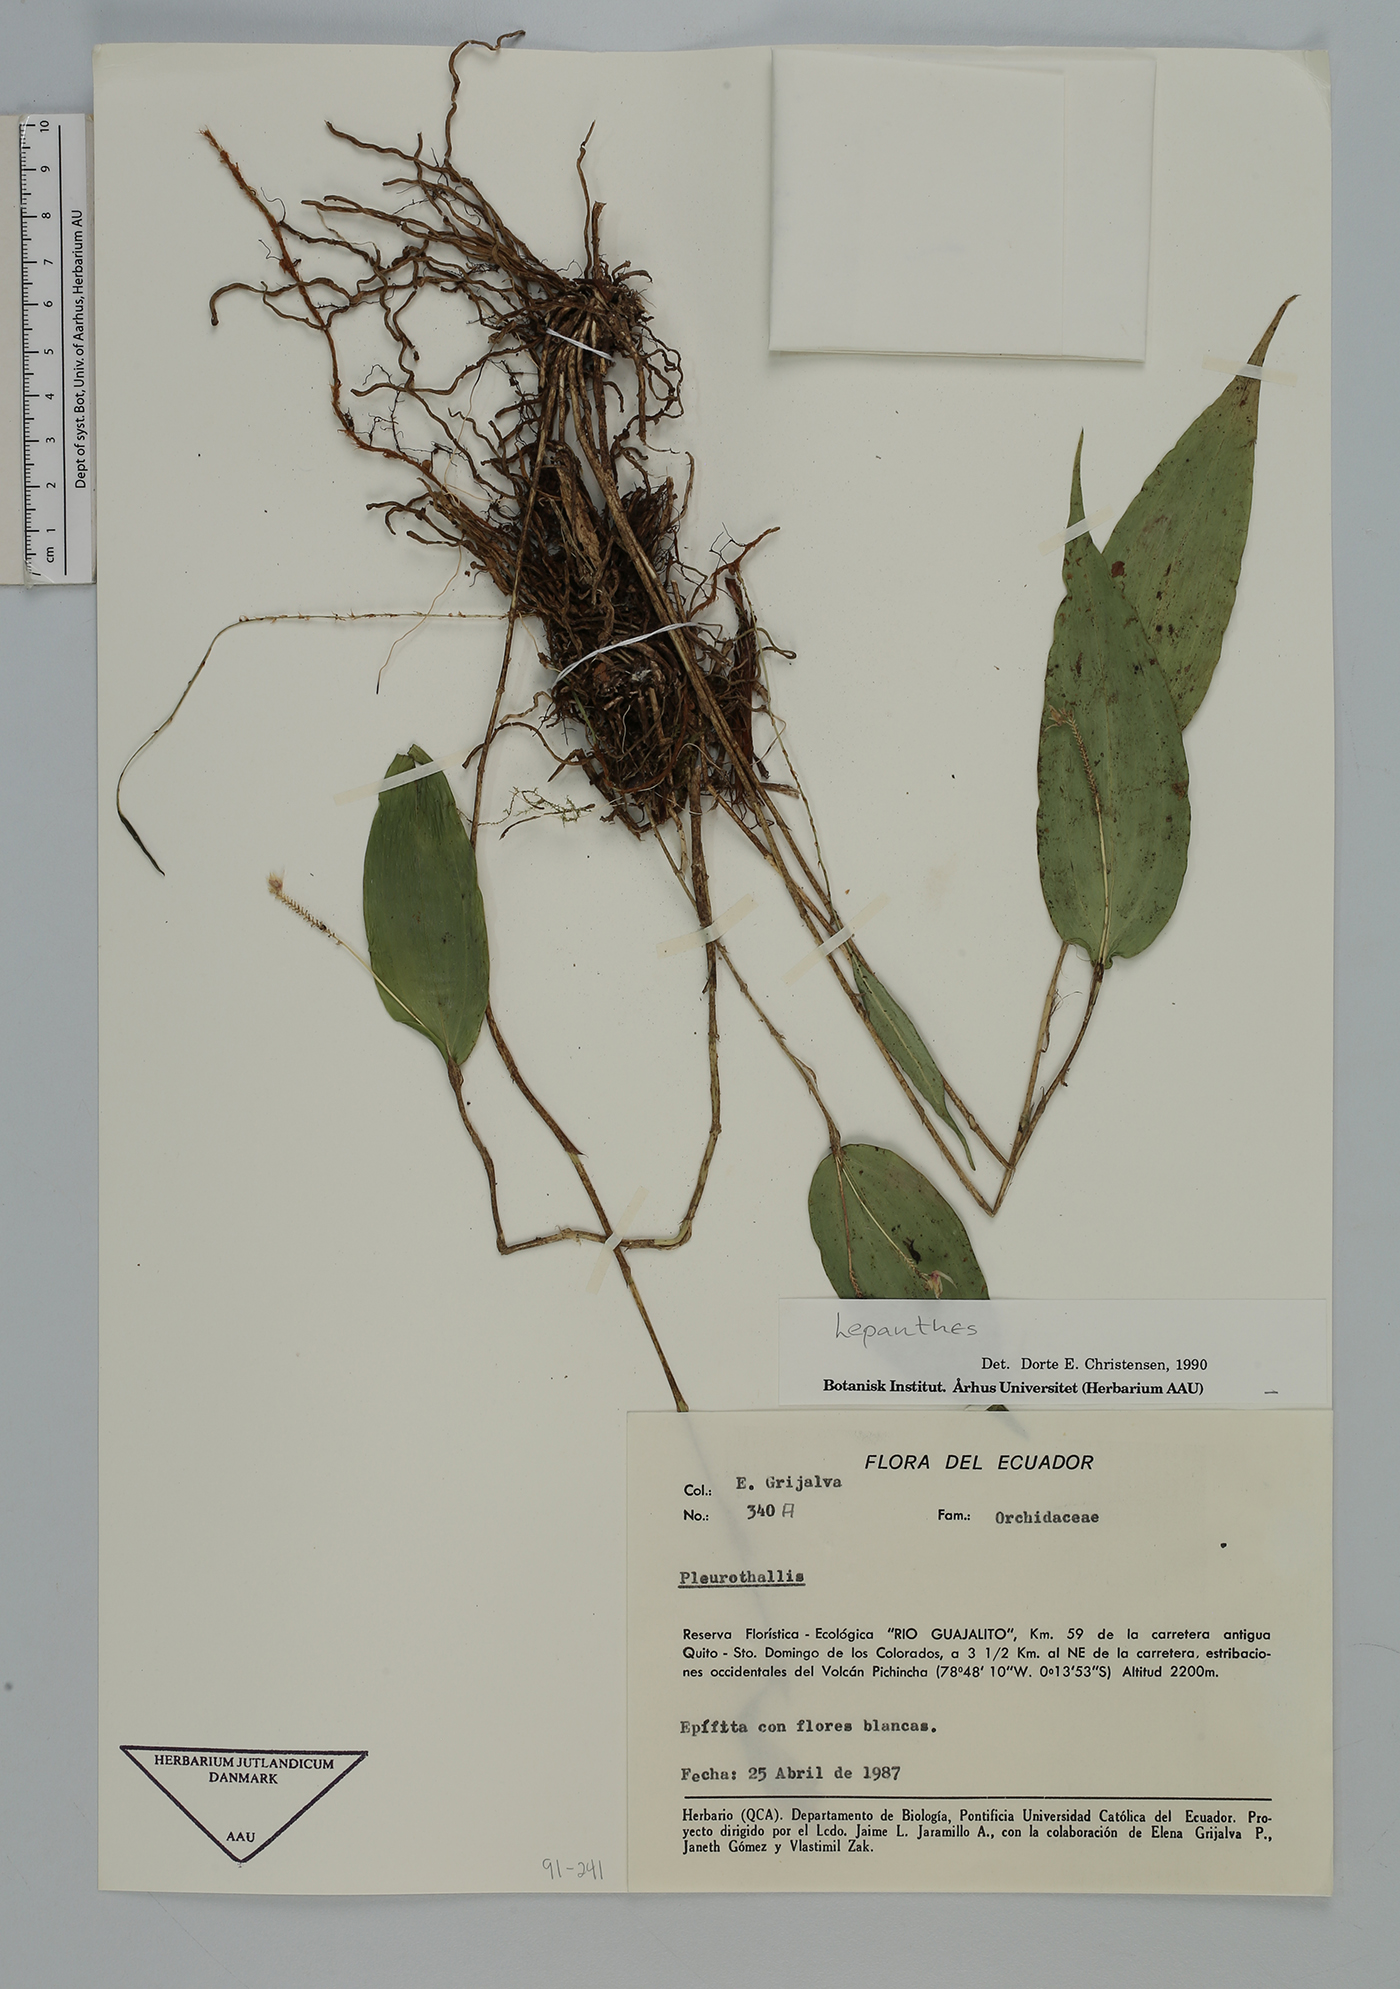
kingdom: Plantae
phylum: Tracheophyta
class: Liliopsida
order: Asparagales
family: Orchidaceae
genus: Lepanthes
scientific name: Lepanthes
